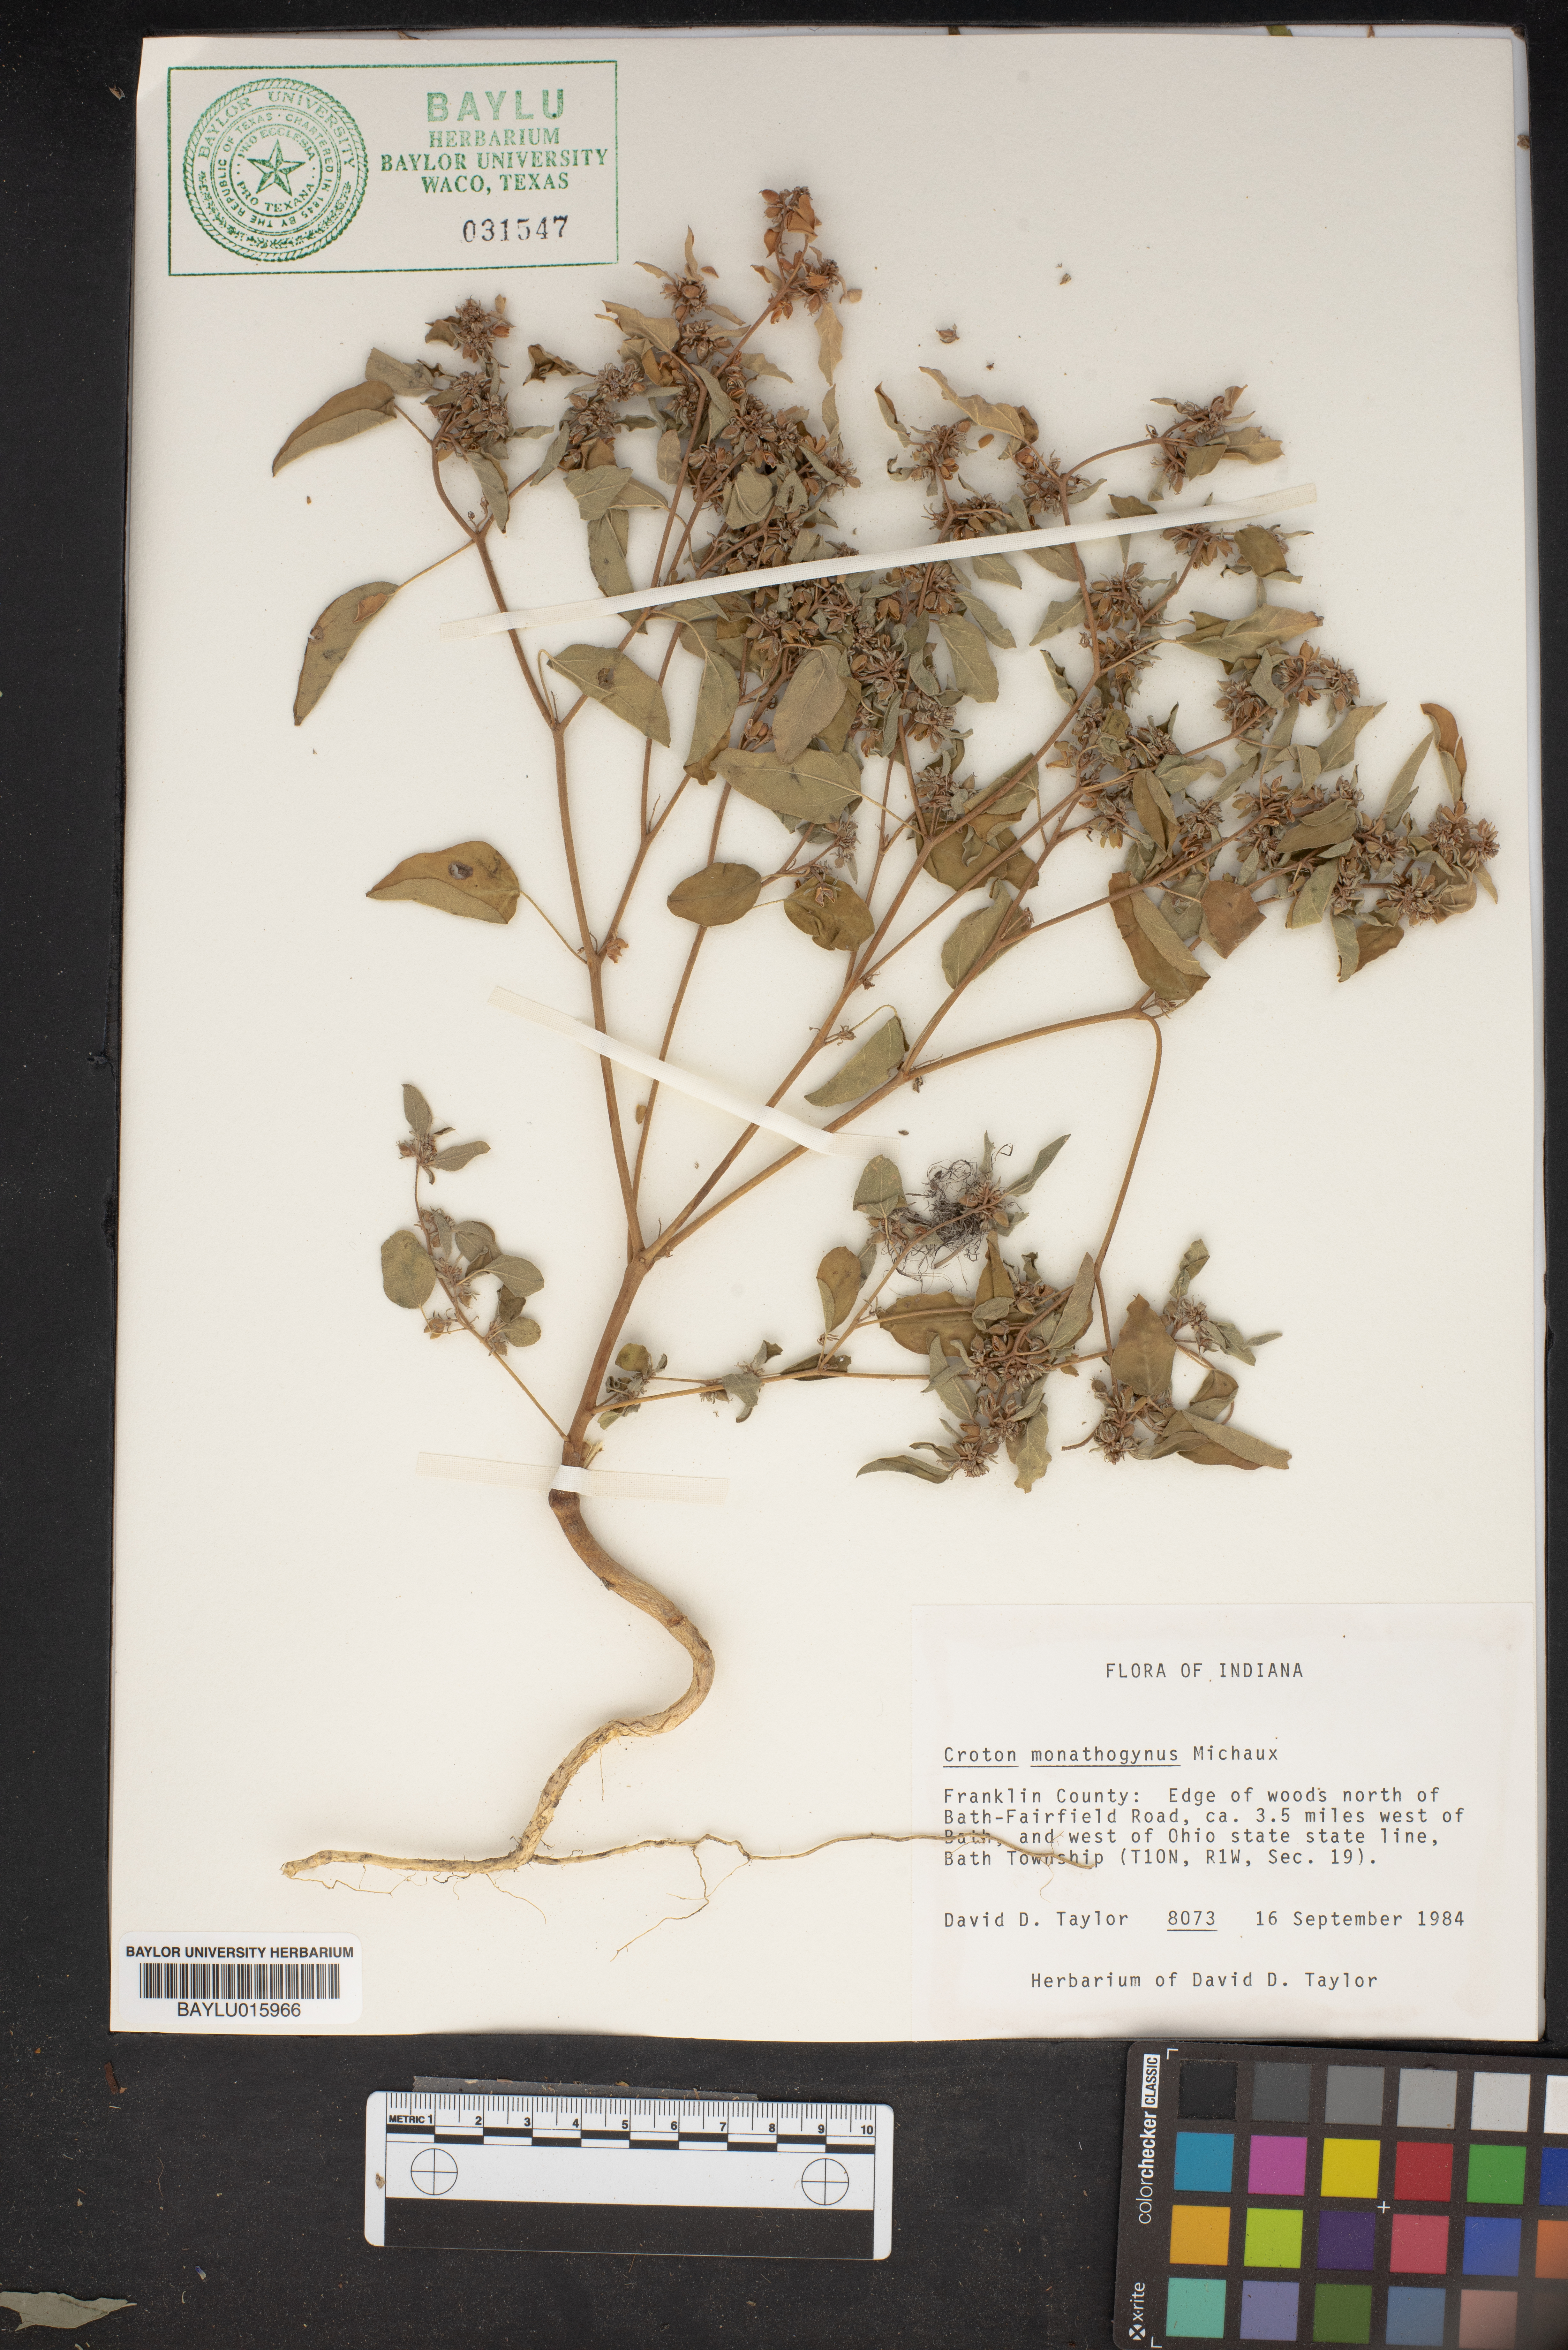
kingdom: Plantae
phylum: Tracheophyta
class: Magnoliopsida
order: Malpighiales
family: Euphorbiaceae
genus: Croton
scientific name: Croton monanthogynus
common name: One-seed croton
